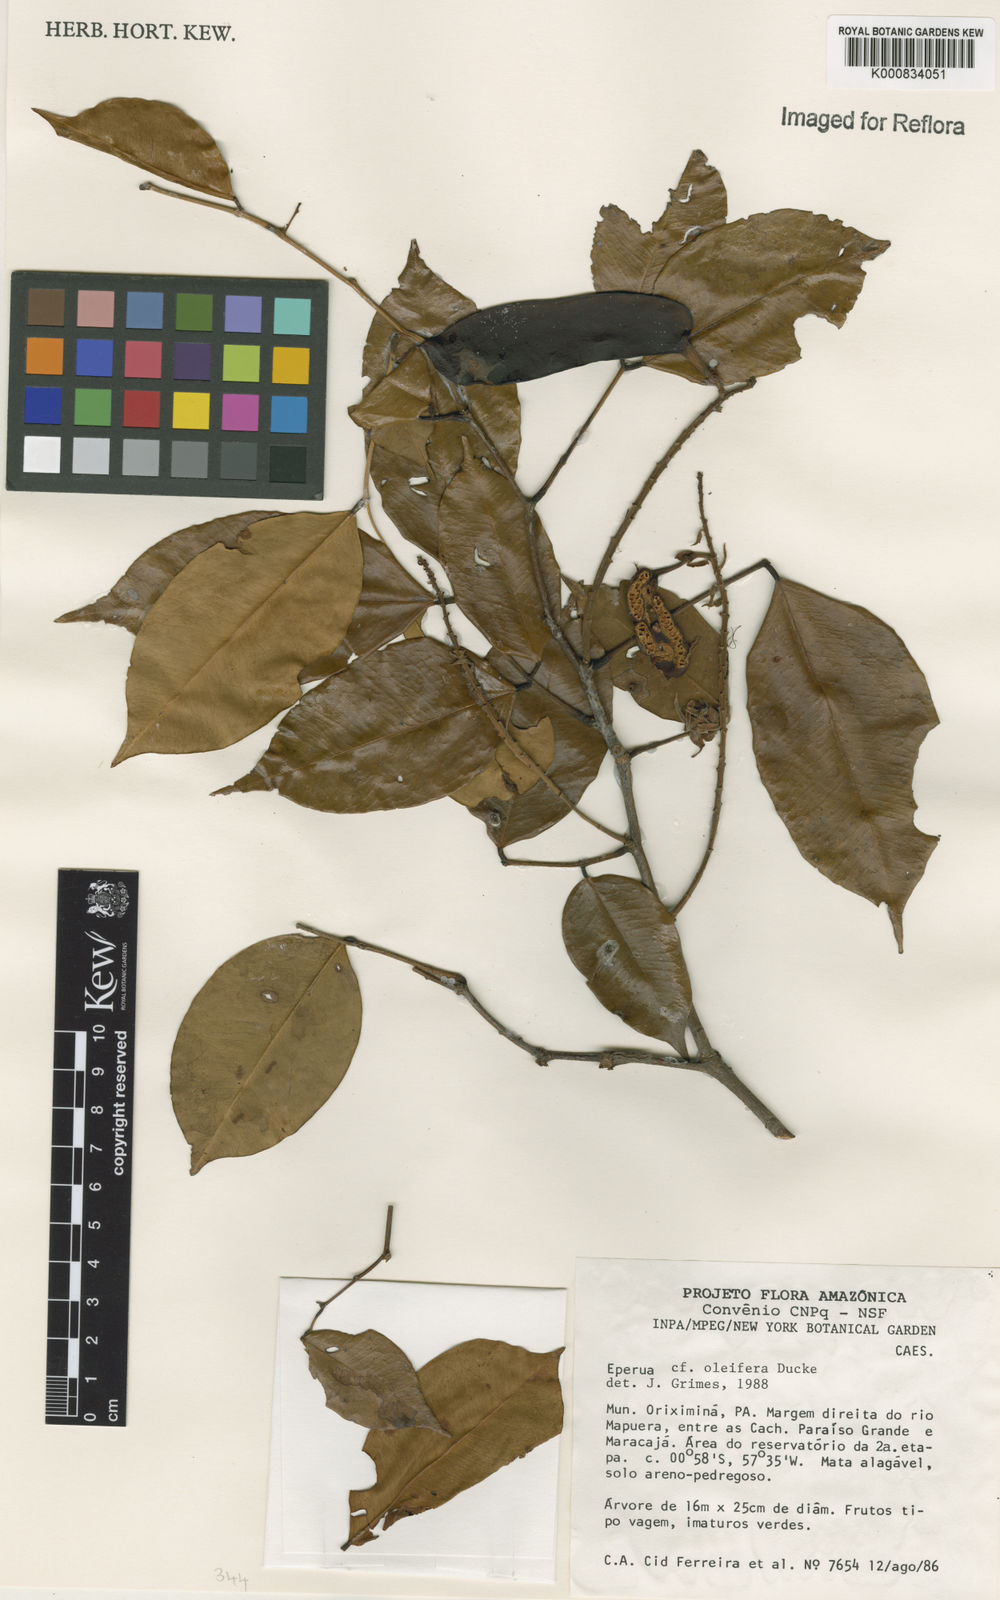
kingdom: Plantae
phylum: Tracheophyta
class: Magnoliopsida
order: Fabales
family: Fabaceae
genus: Eperua
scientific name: Eperua oleifera
